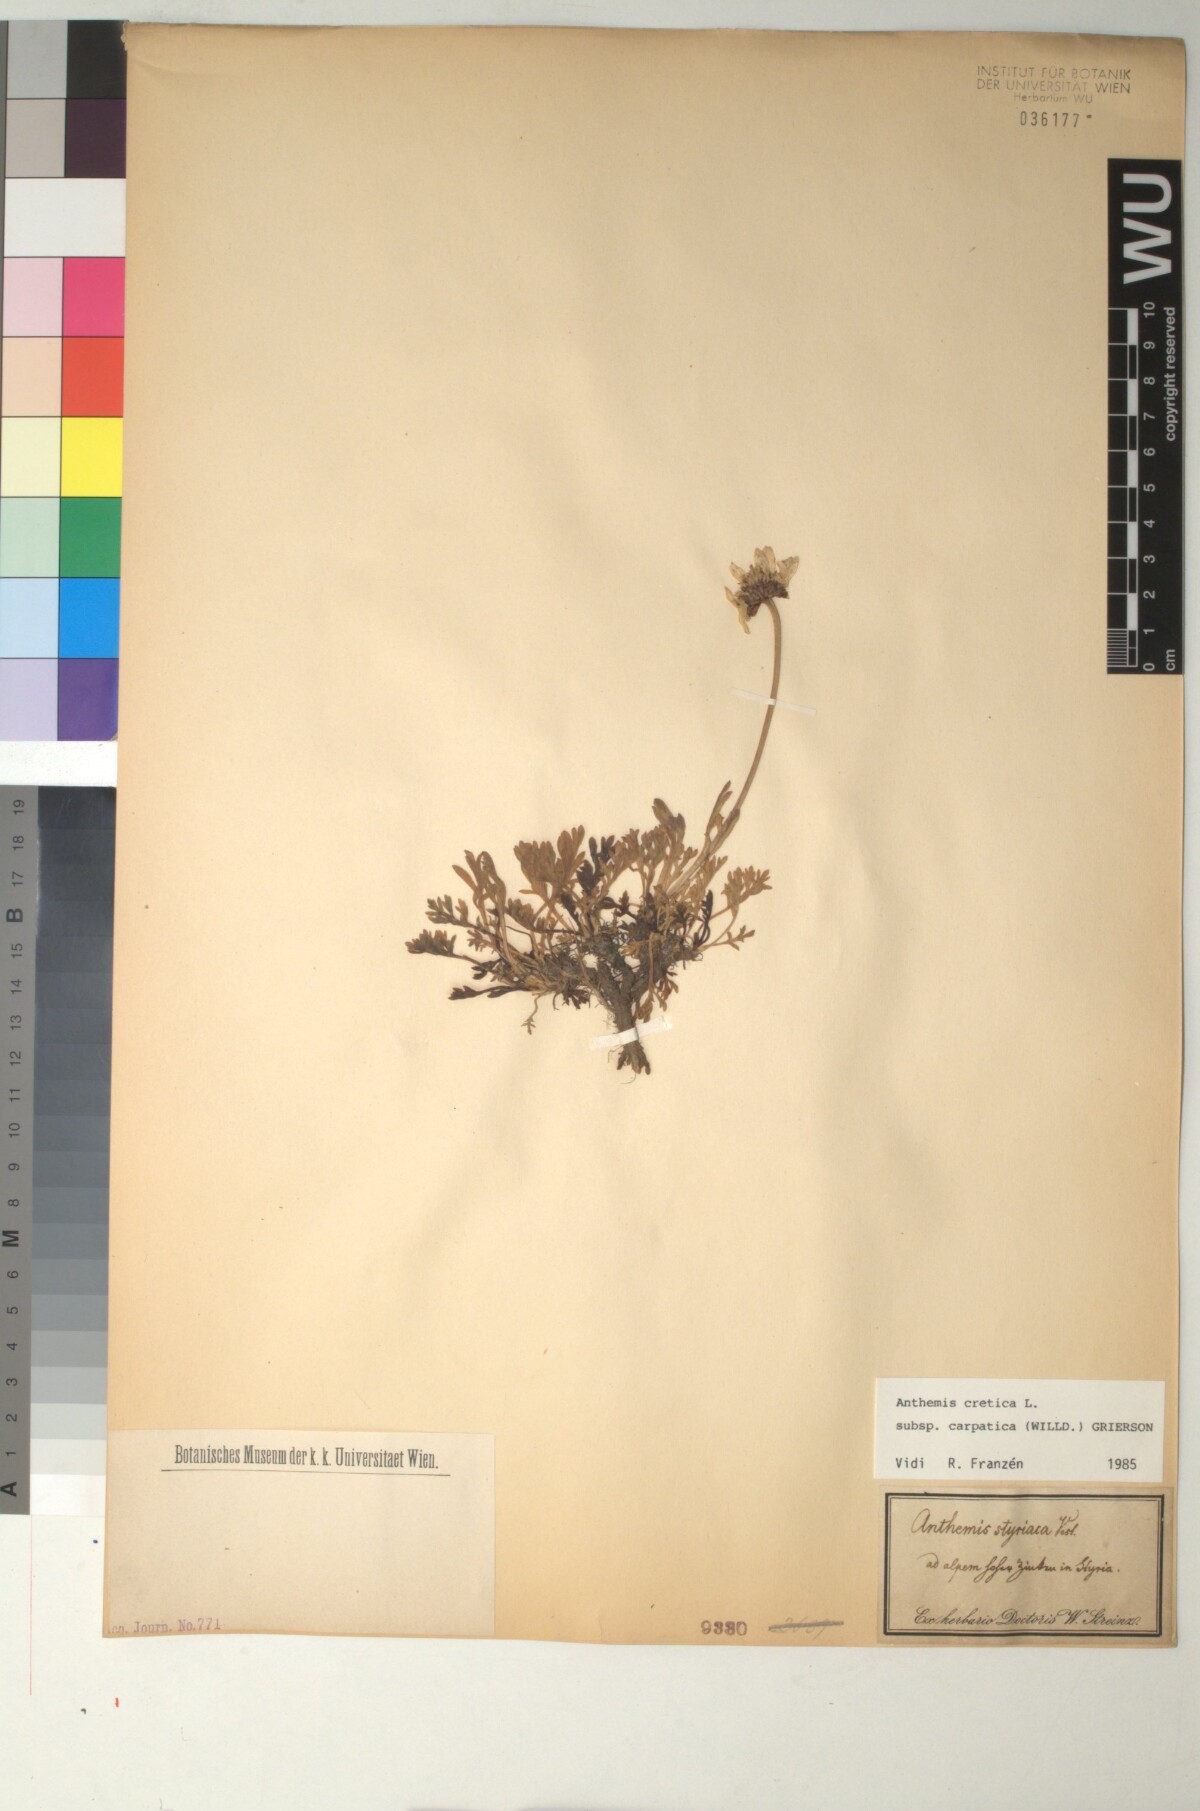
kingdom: Plantae
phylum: Tracheophyta
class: Magnoliopsida
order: Asterales
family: Asteraceae
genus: Anthemis
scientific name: Anthemis cretica
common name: Mountain dog-daisy
